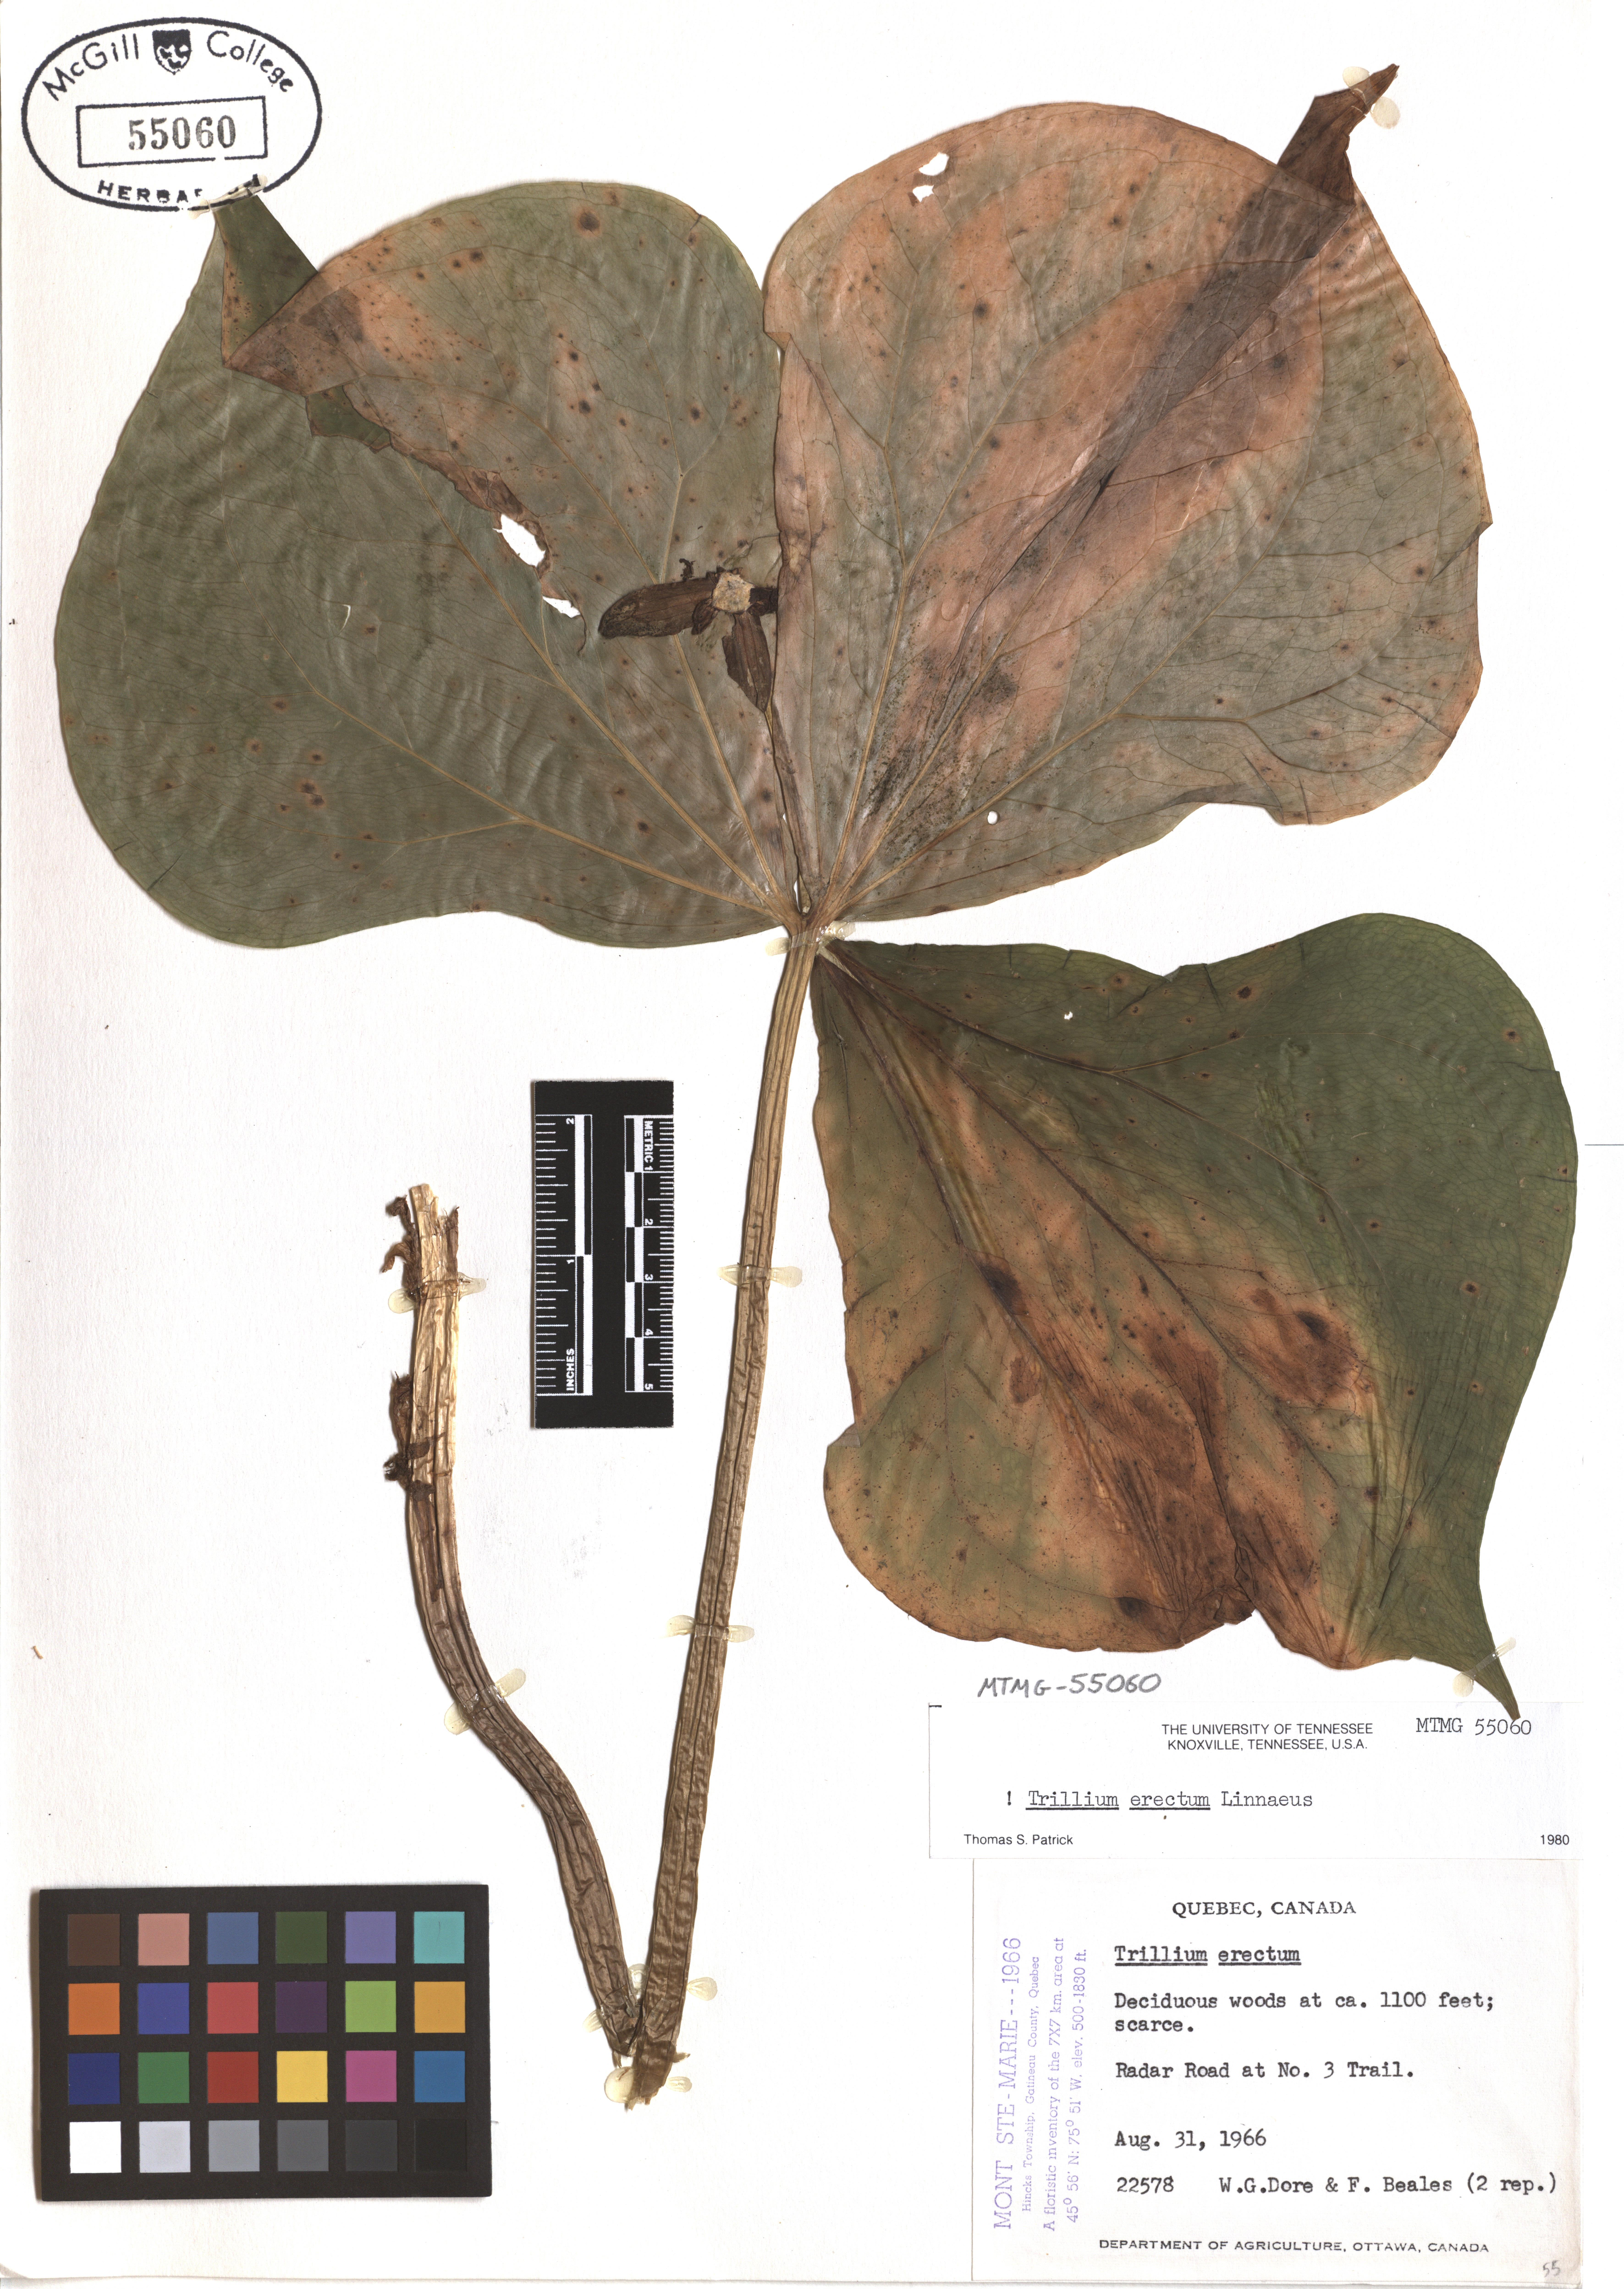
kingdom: Plantae
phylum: Tracheophyta
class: Liliopsida
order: Liliales
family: Melanthiaceae
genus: Trillium
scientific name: Trillium erectum
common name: Purple trillium
